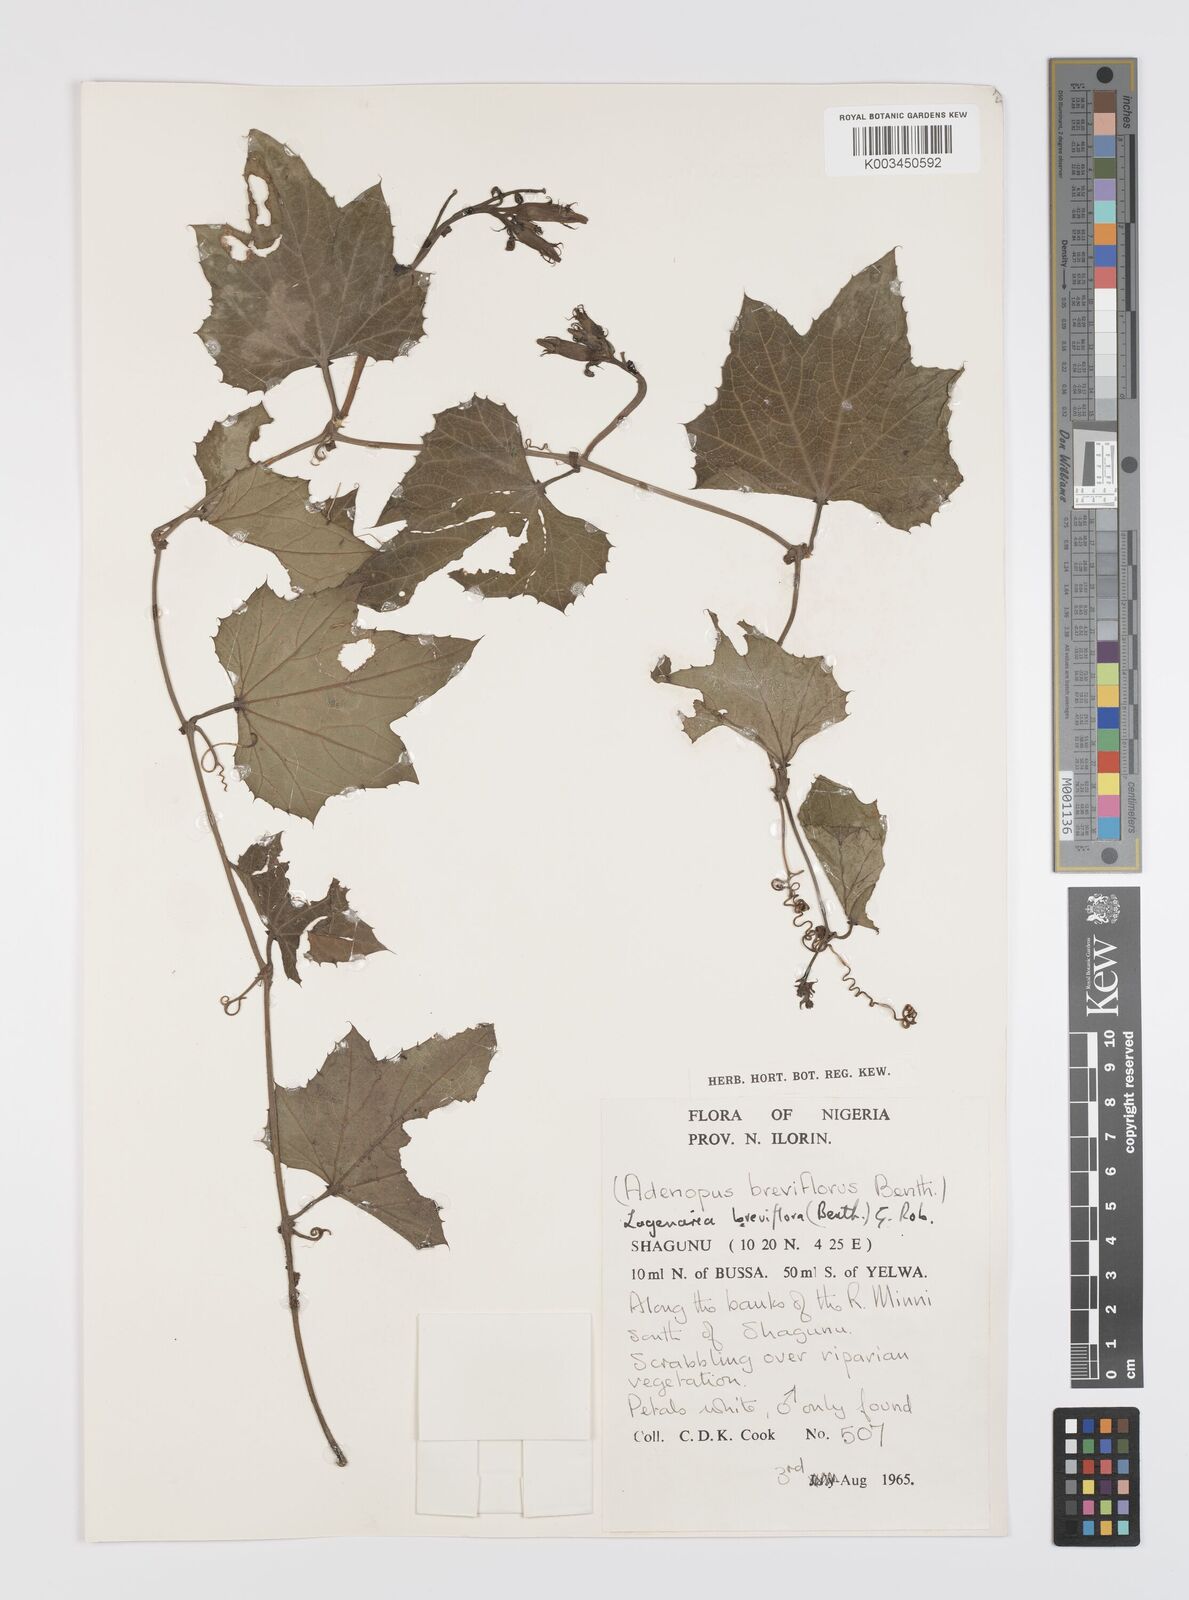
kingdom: Plantae
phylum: Tracheophyta
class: Magnoliopsida
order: Cucurbitales
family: Cucurbitaceae
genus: Lagenaria
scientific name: Lagenaria breviflora
